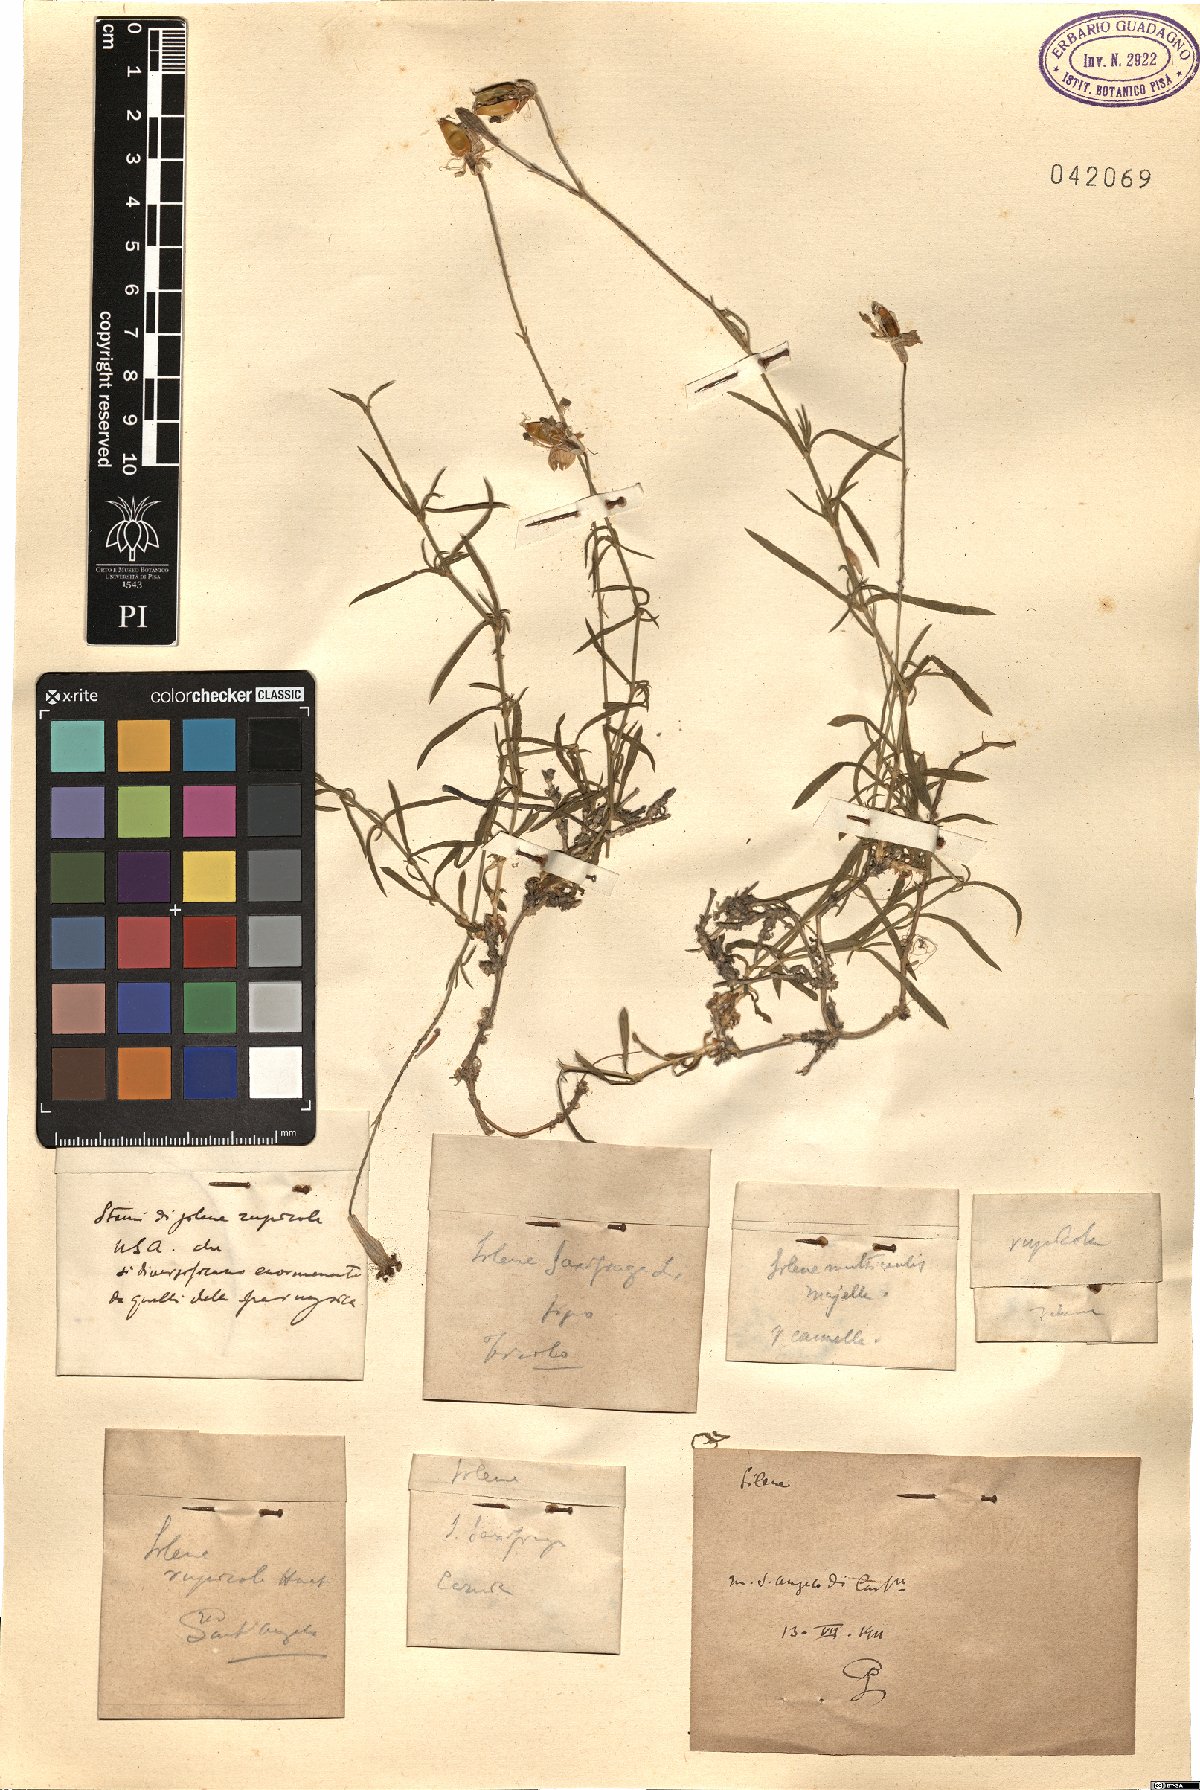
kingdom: Plantae
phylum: Tracheophyta
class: Magnoliopsida
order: Caryophyllales
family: Caryophyllaceae
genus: Silene
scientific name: Silene saxifraga
